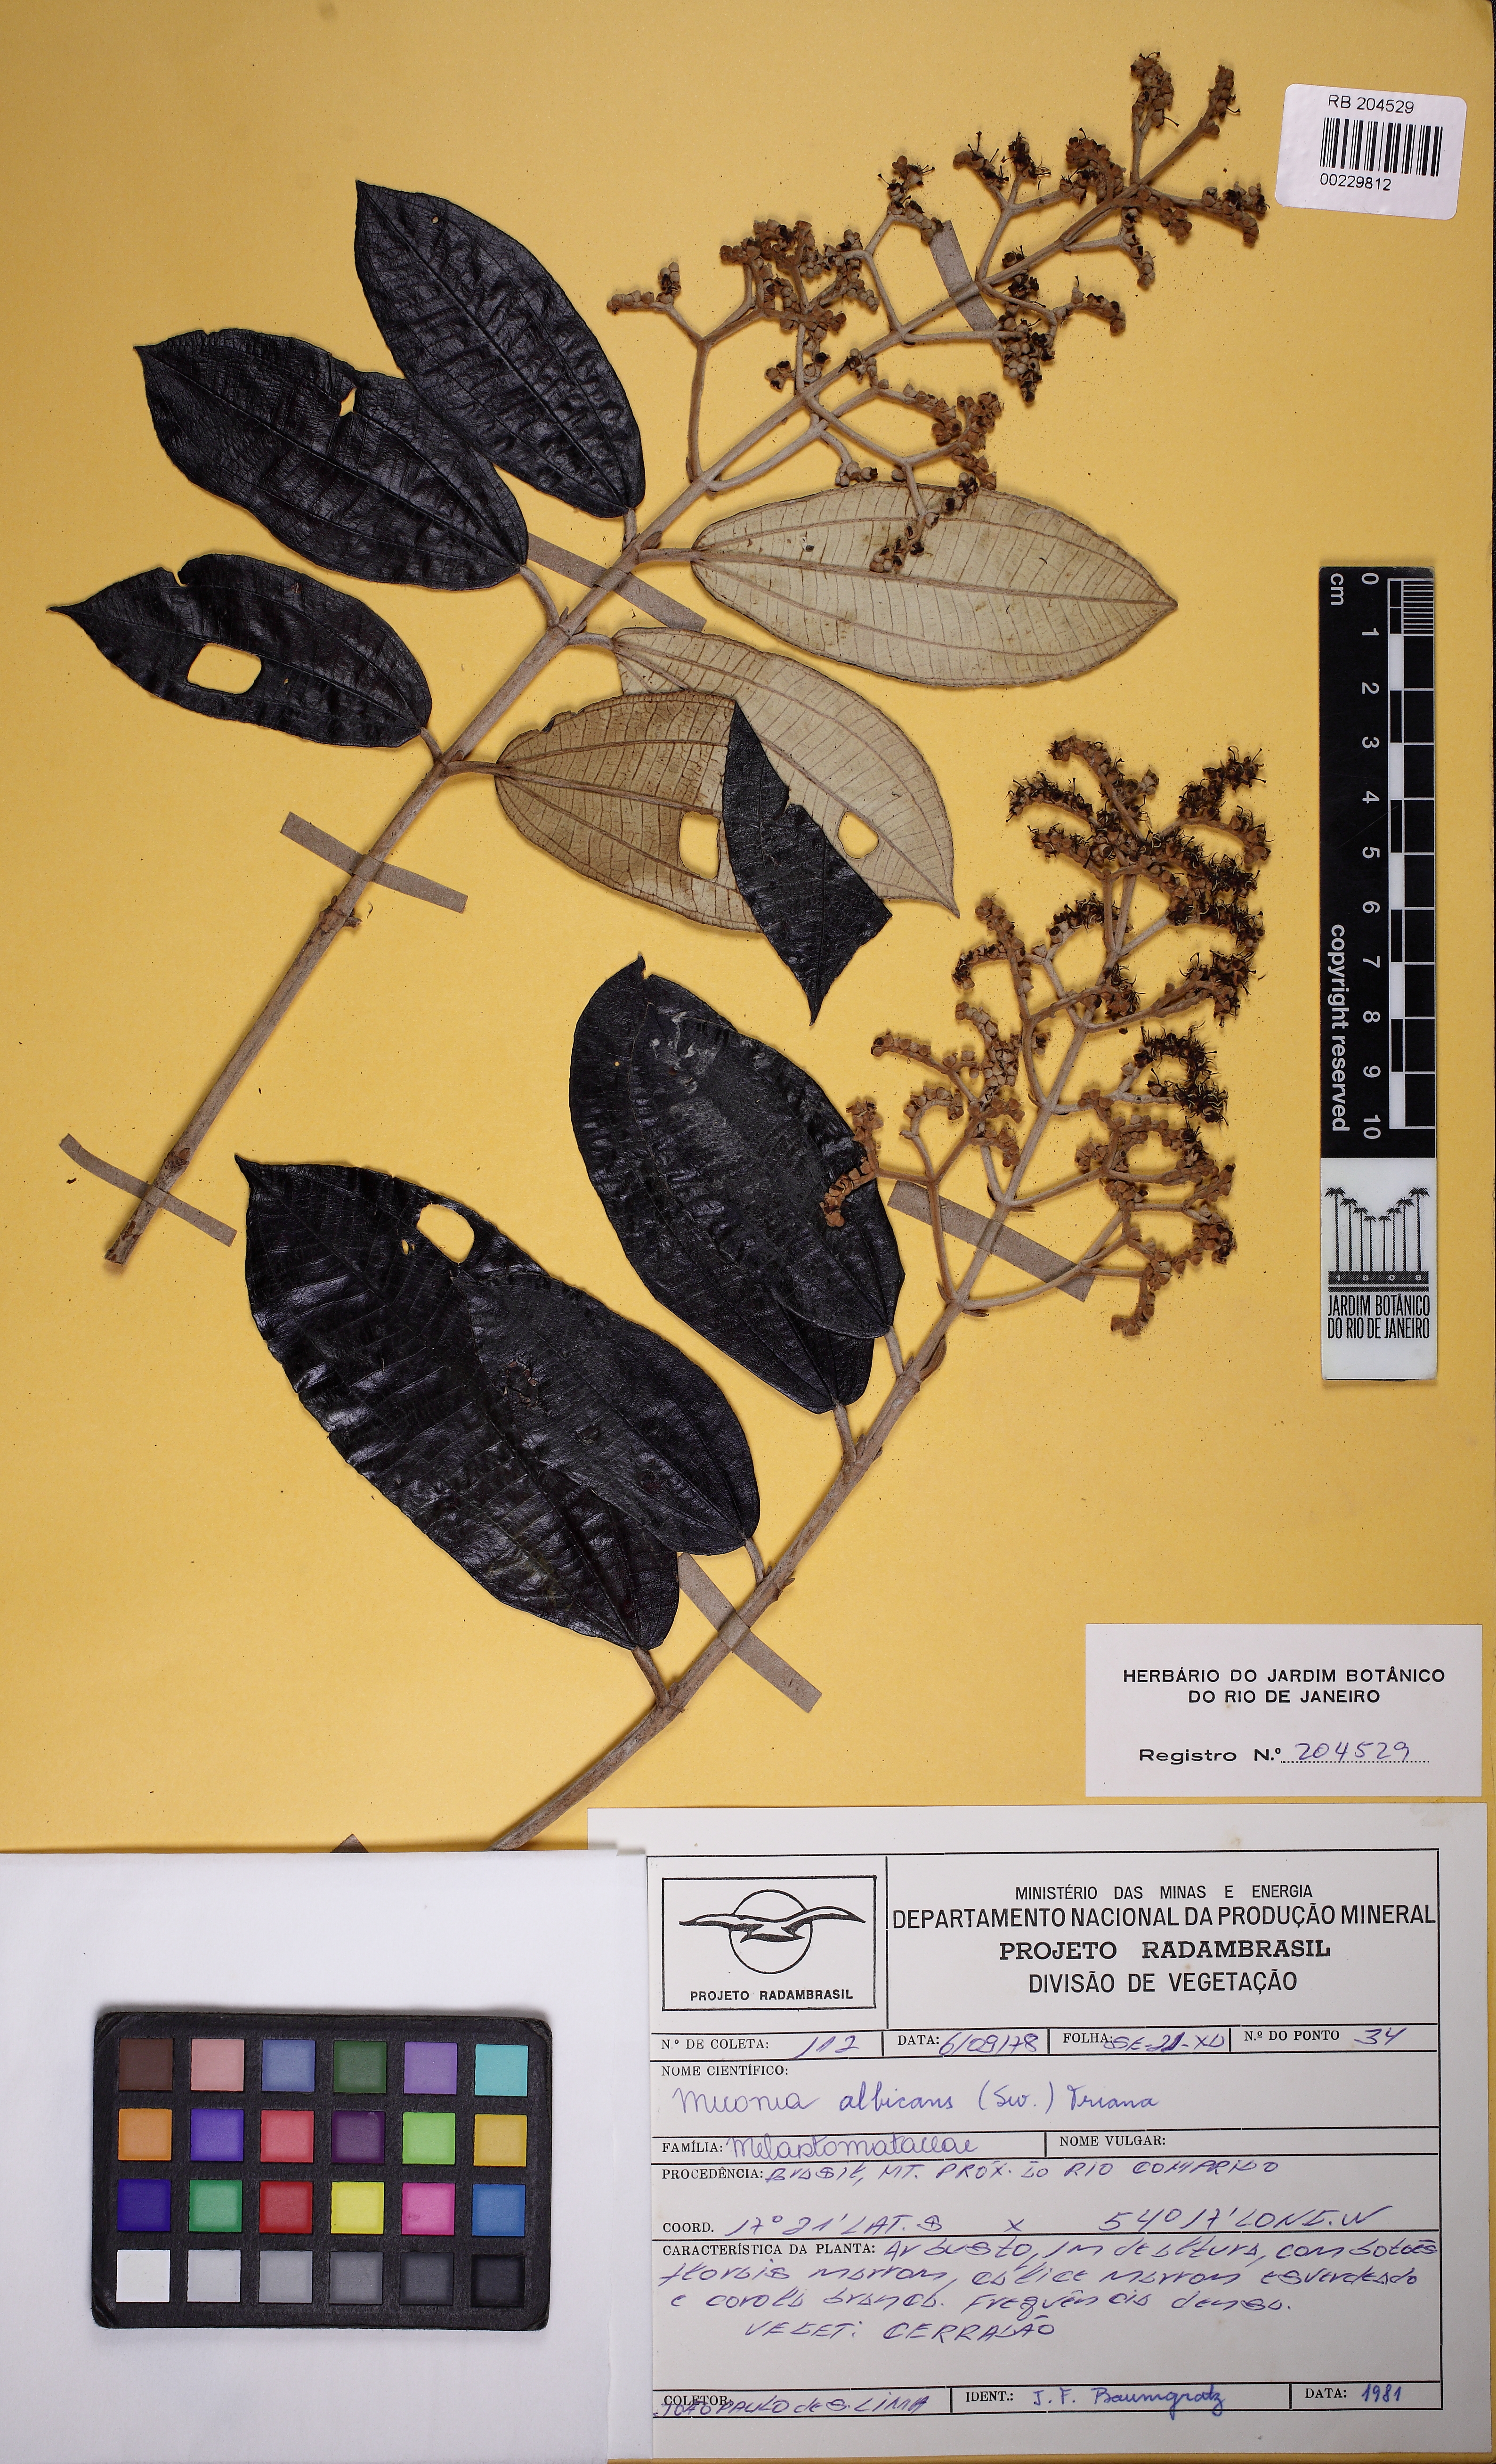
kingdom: Plantae
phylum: Tracheophyta
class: Magnoliopsida
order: Myrtales
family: Melastomataceae
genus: Miconia
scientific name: Miconia albicans
